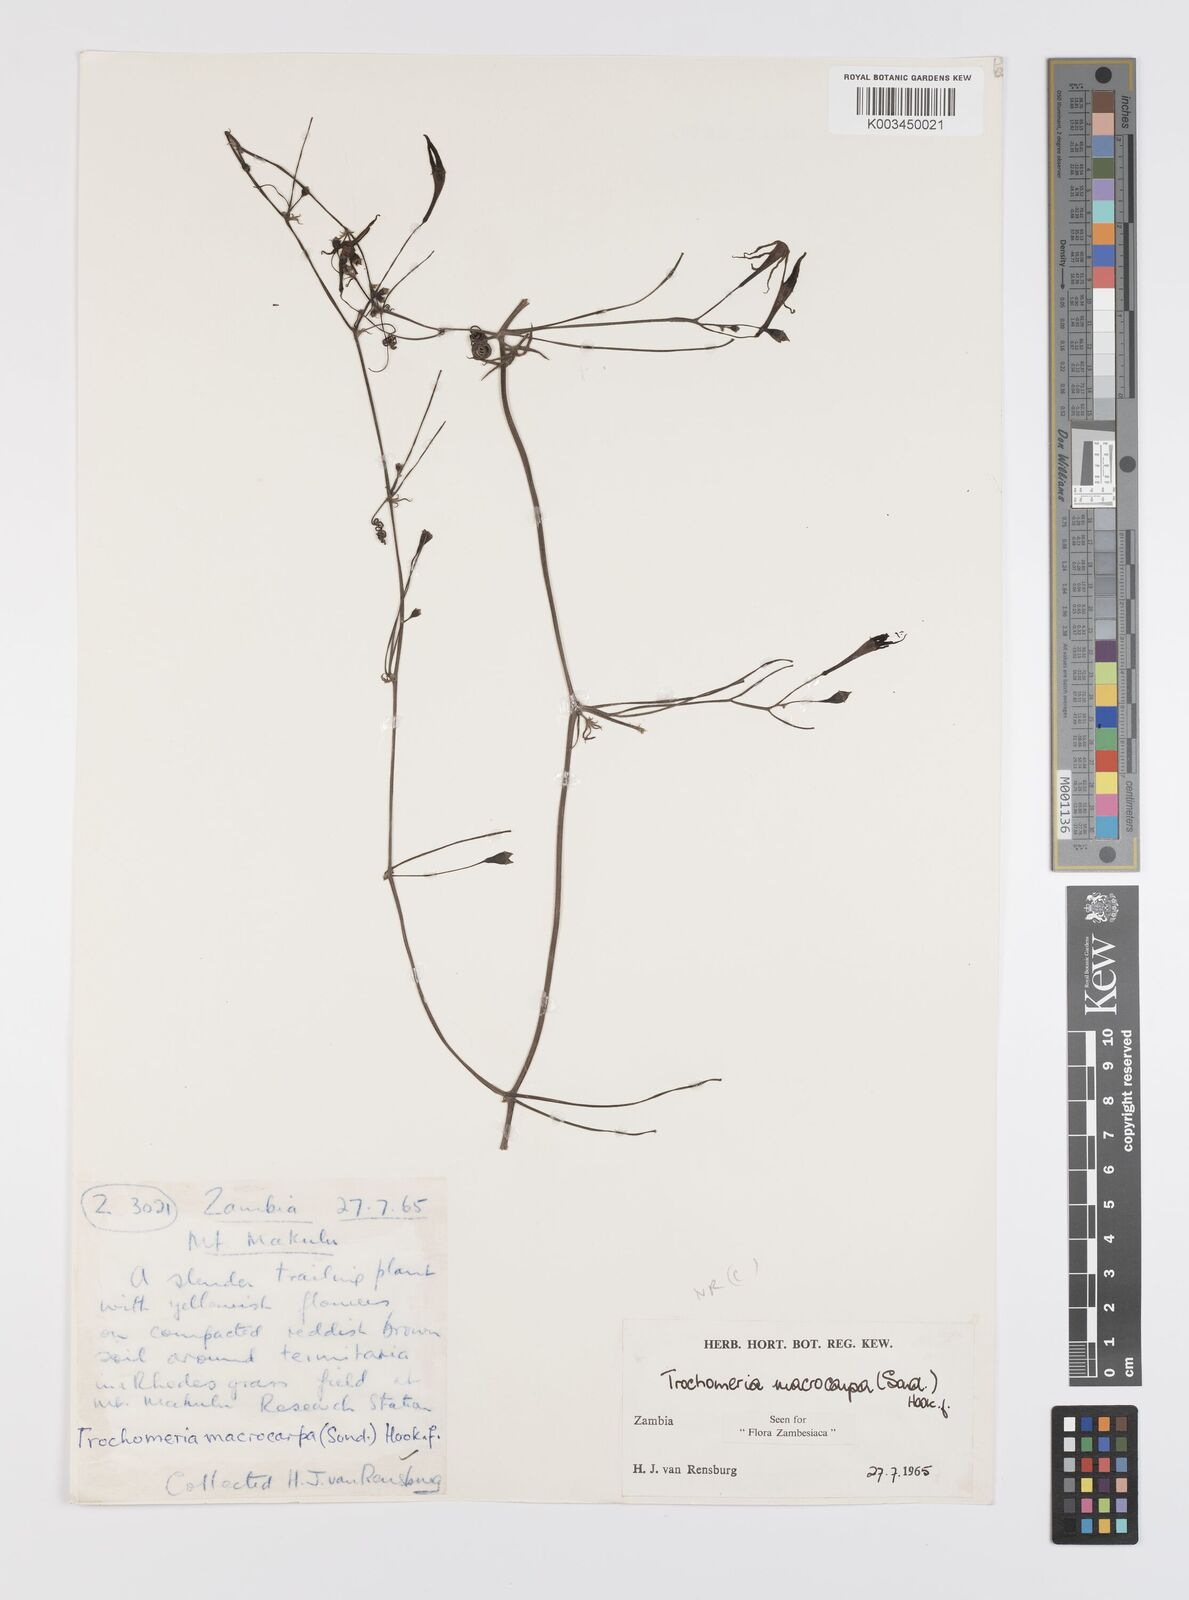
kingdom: Plantae
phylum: Tracheophyta
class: Magnoliopsida
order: Cucurbitales
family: Cucurbitaceae
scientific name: Cucurbitaceae
